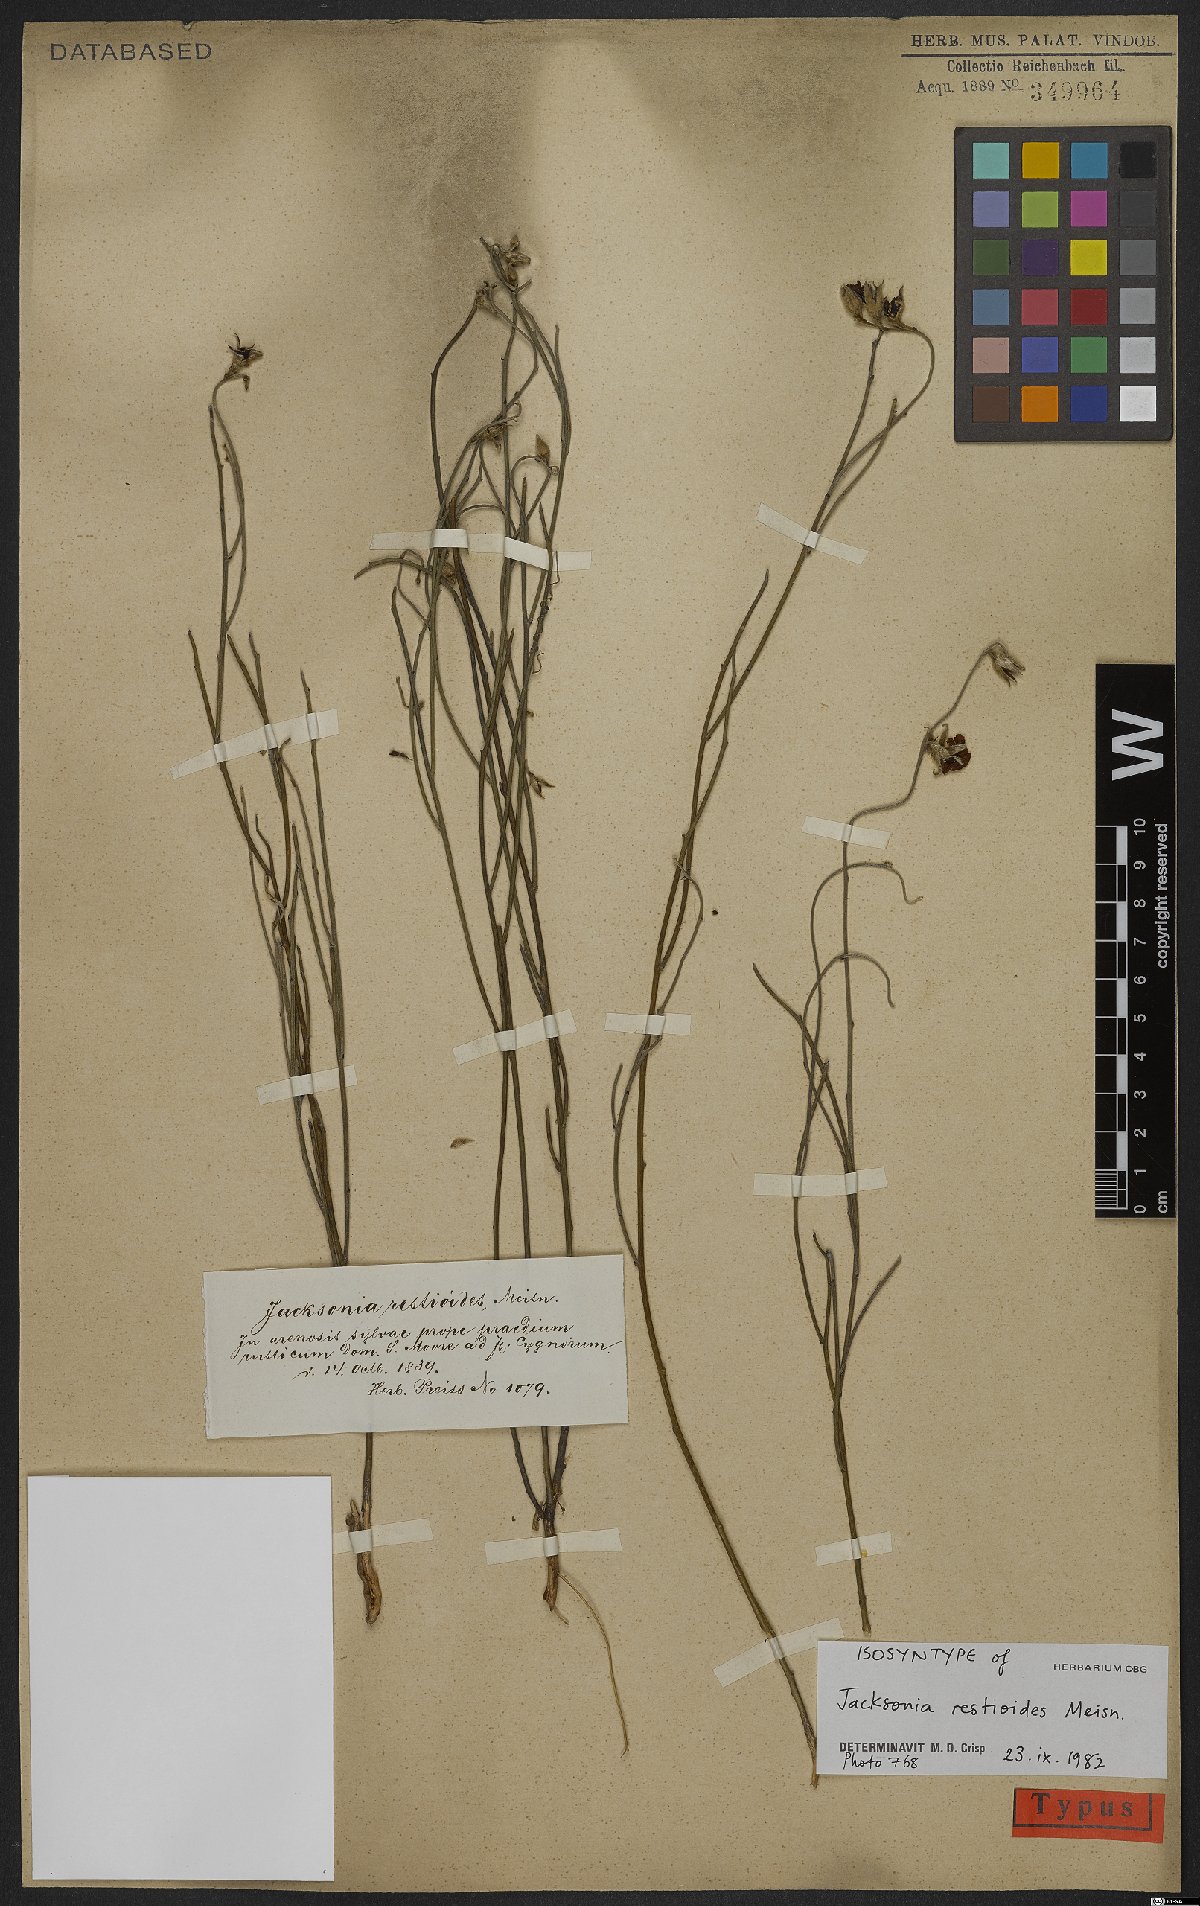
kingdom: Plantae
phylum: Tracheophyta
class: Magnoliopsida
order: Fabales
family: Fabaceae
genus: Jacksonia
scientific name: Jacksonia restioides
